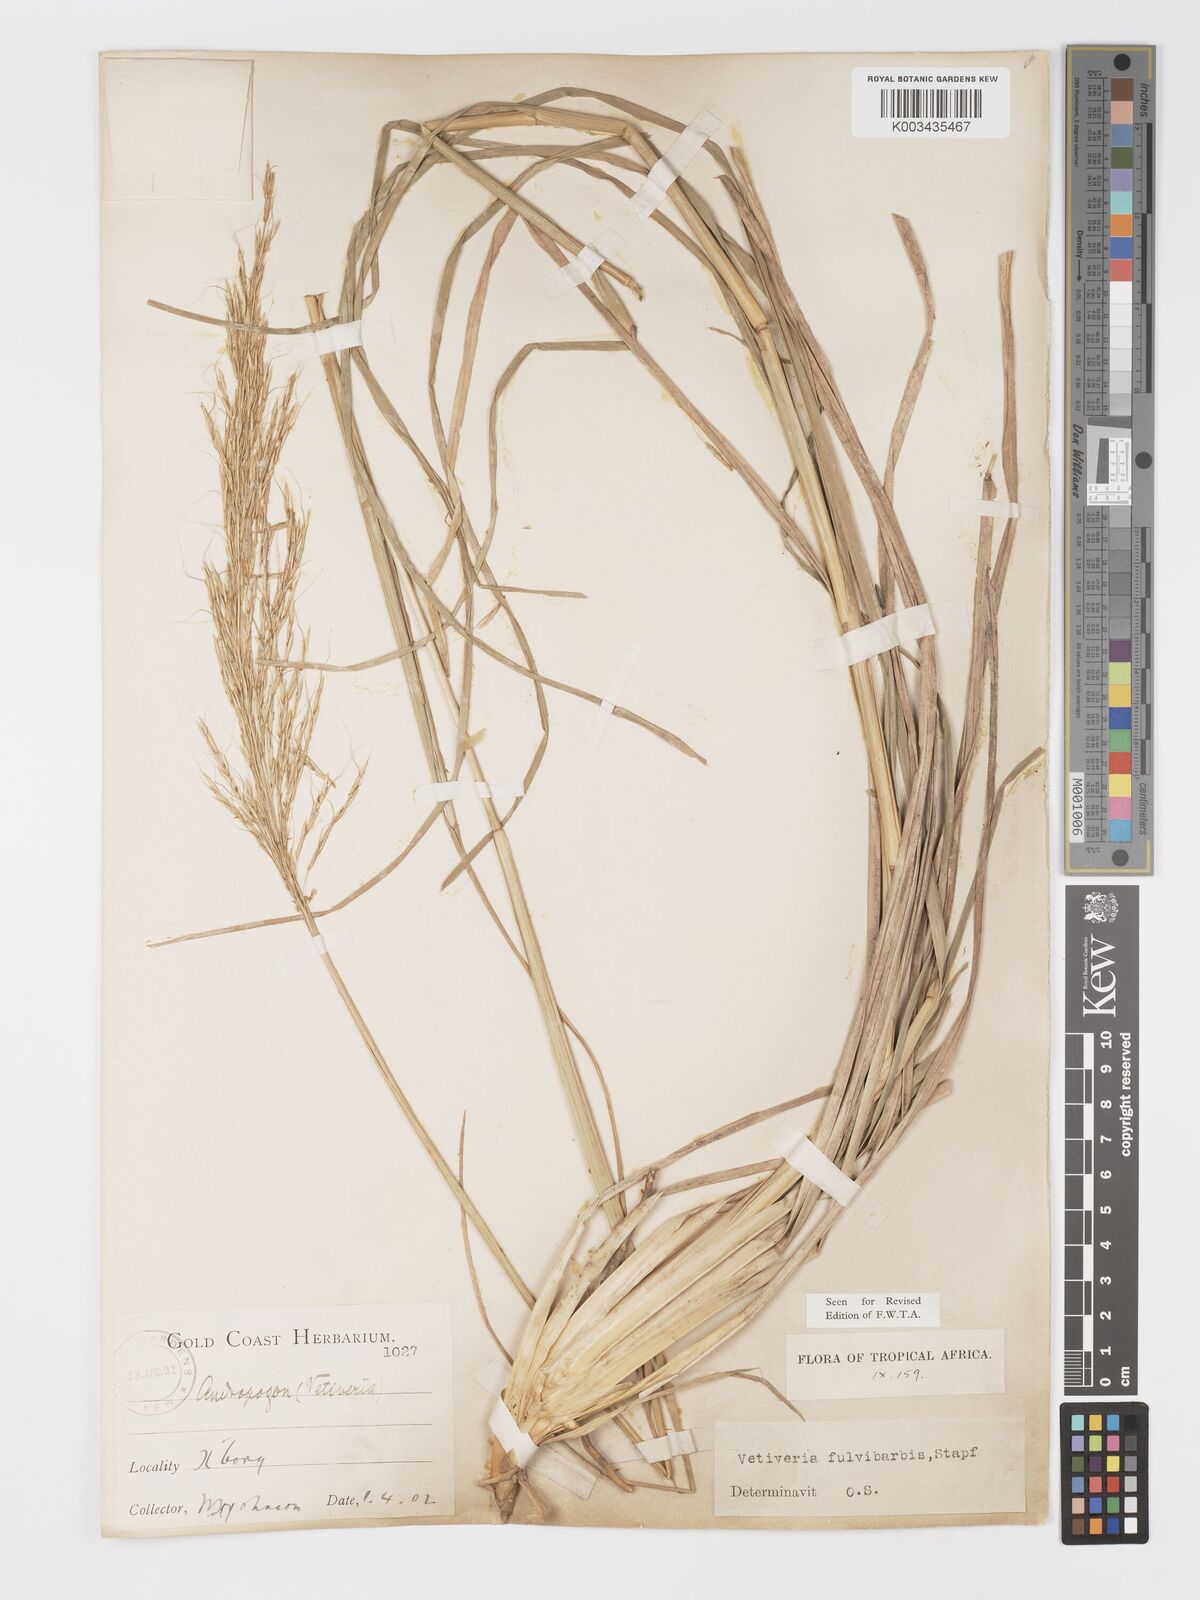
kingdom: Plantae
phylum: Tracheophyta
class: Liliopsida
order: Poales
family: Poaceae
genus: Chrysopogon
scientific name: Chrysopogon fulvibarbis
